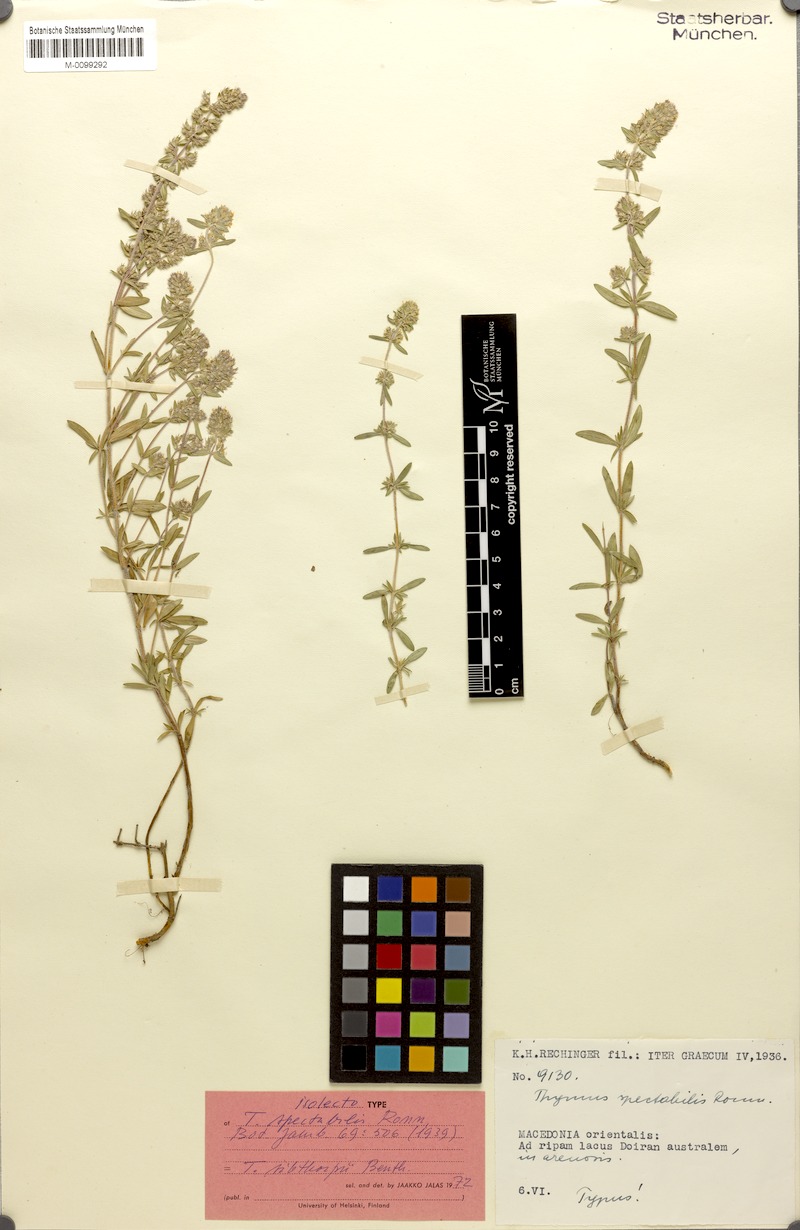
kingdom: Plantae
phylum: Tracheophyta
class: Magnoliopsida
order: Lamiales
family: Lamiaceae
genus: Thymus
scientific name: Thymus sibthorpii
